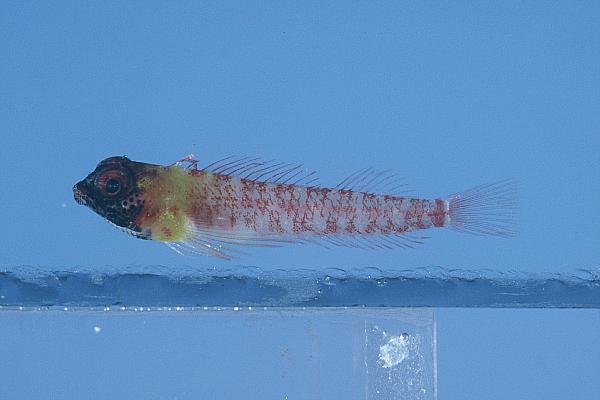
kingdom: Animalia
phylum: Chordata
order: Perciformes
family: Tripterygiidae
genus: Enneapterygius
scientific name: Enneapterygius elaine
